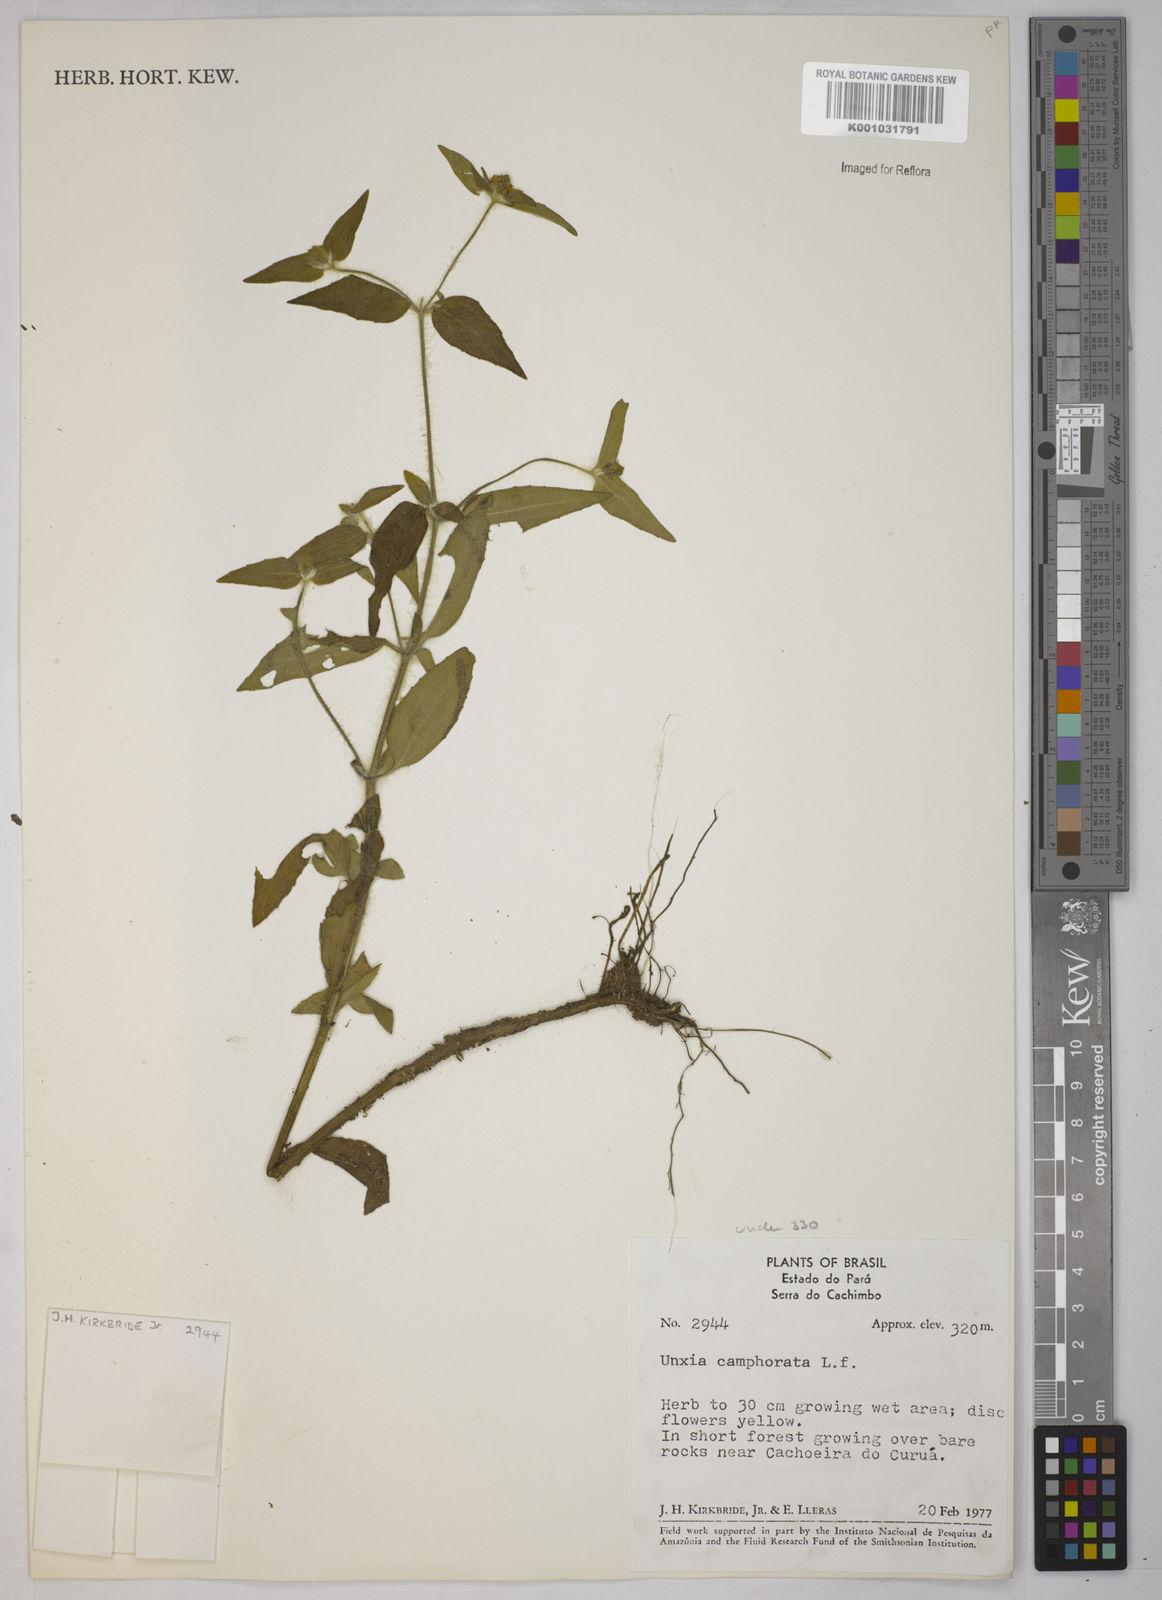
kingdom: Plantae
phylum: Tracheophyta
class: Magnoliopsida
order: Asterales
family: Asteraceae
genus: Unxia
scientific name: Unxia camphorata
